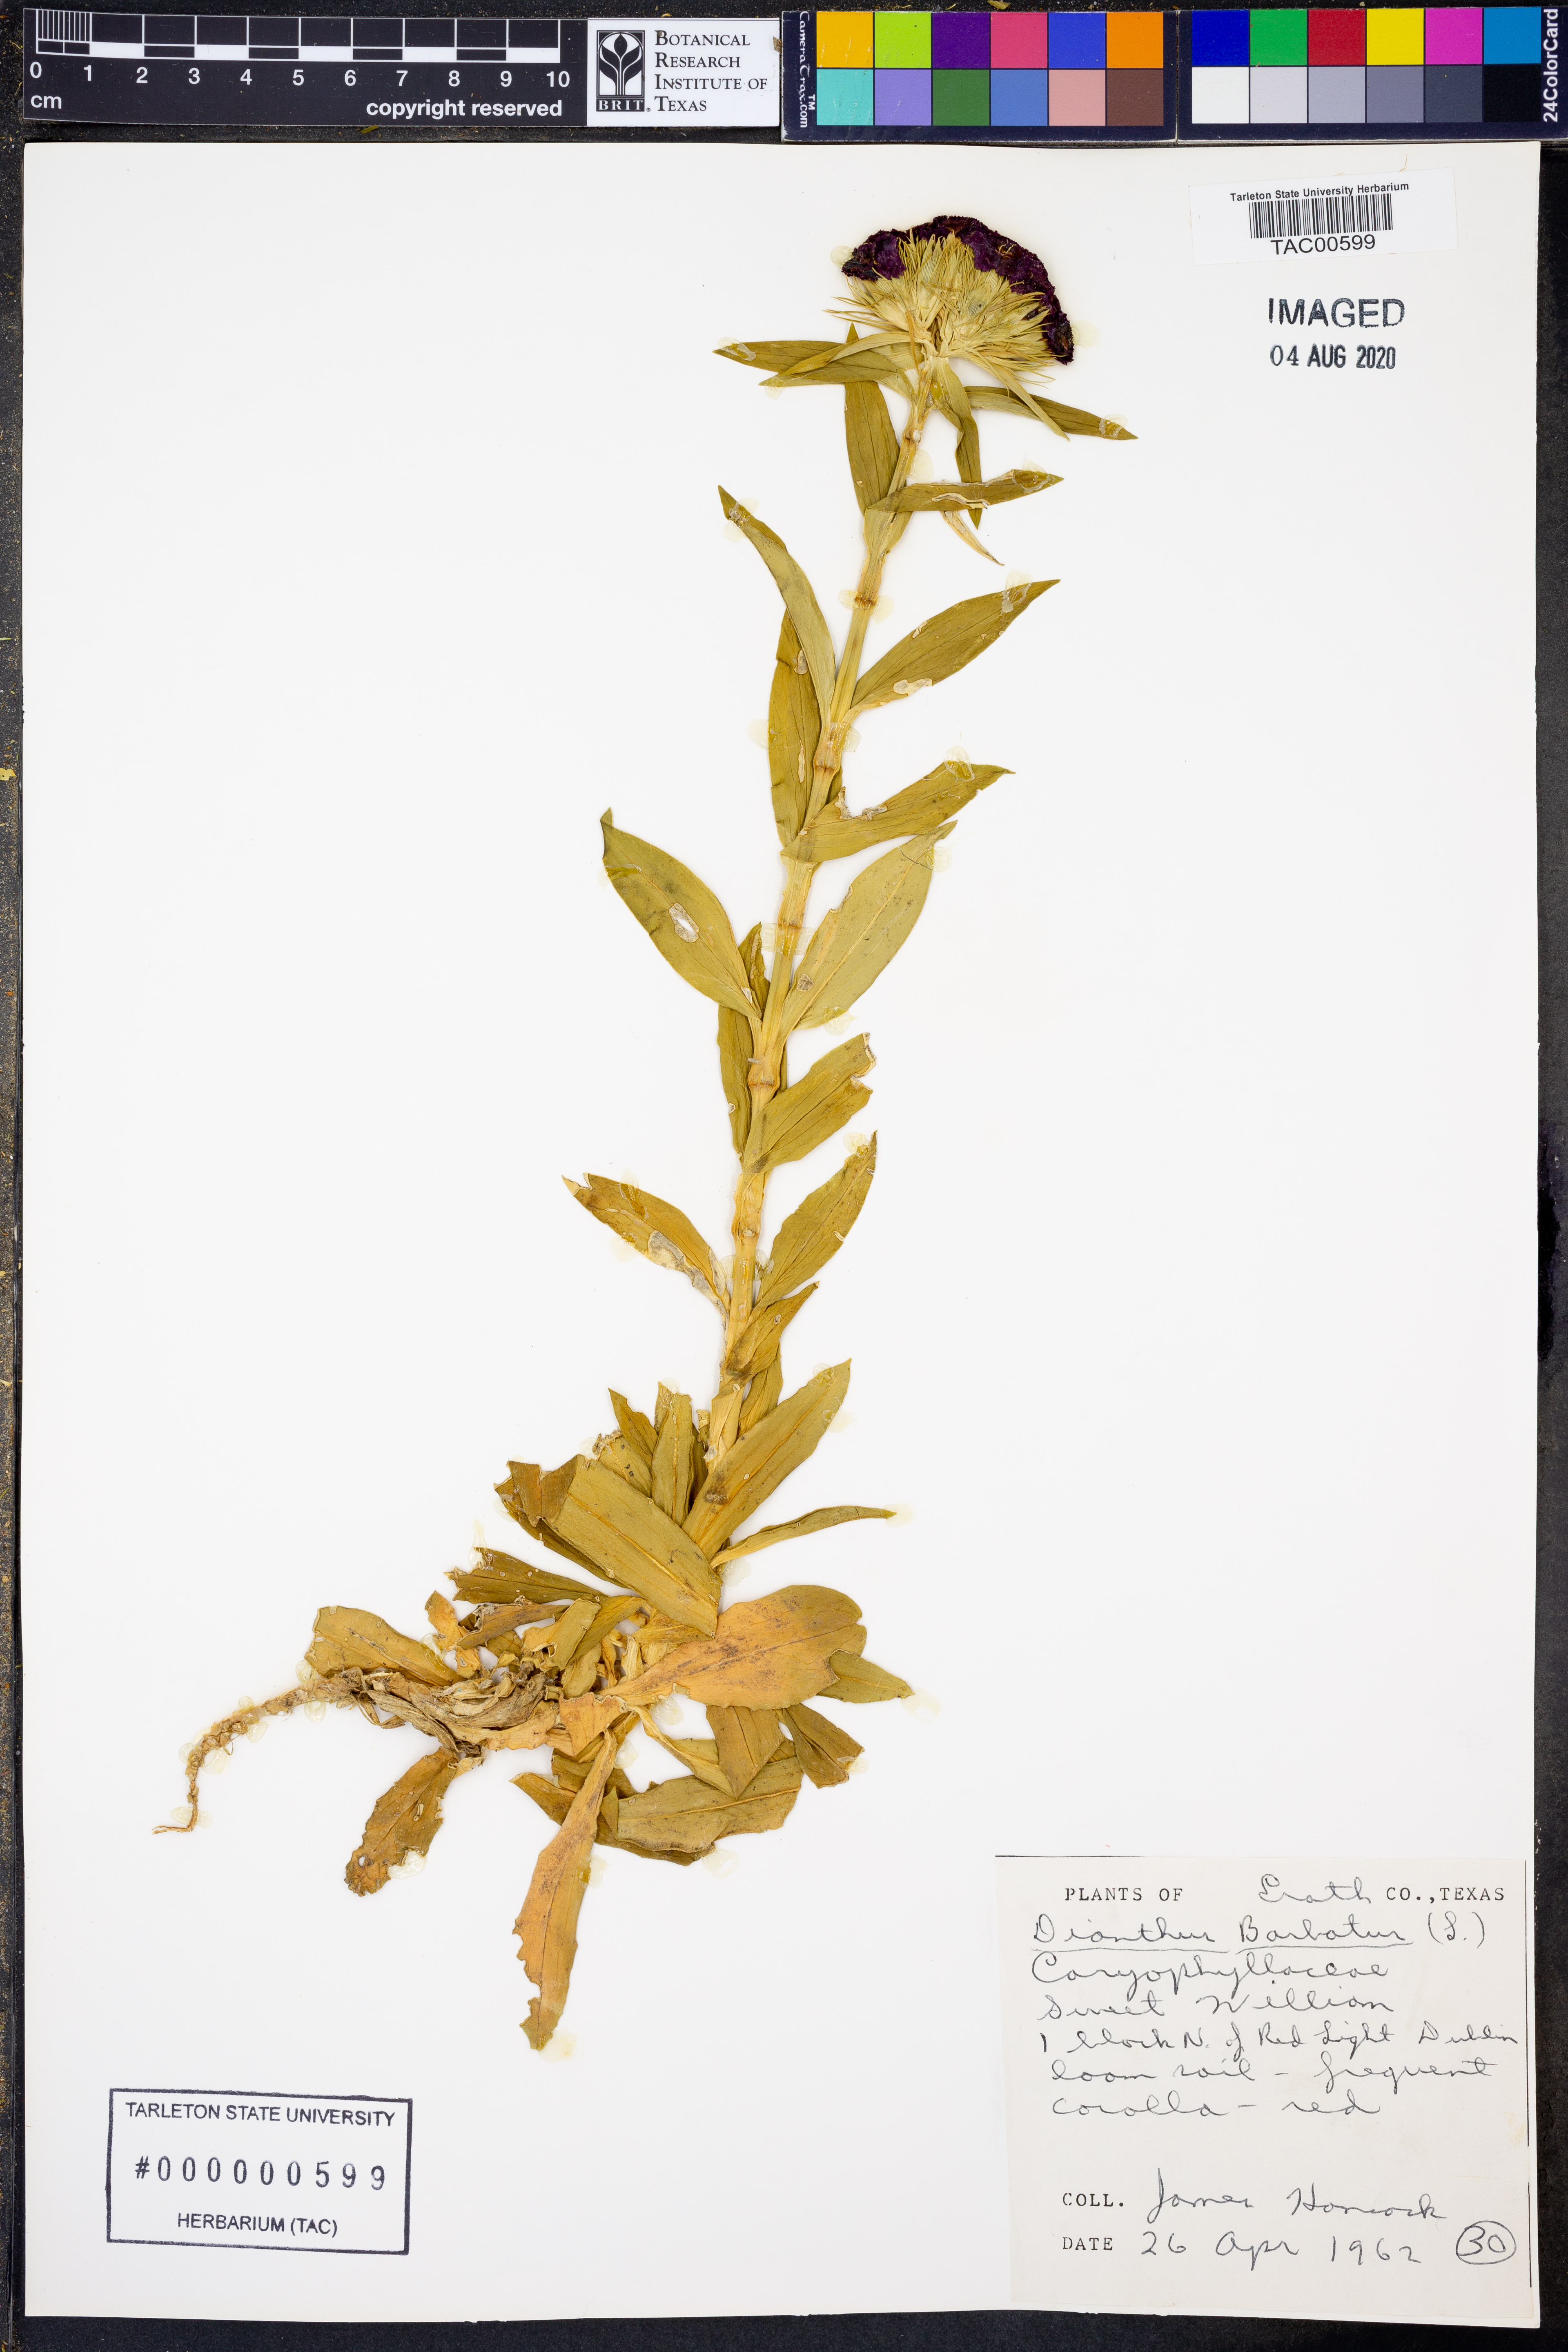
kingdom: Plantae
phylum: Tracheophyta
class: Magnoliopsida
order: Caryophyllales
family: Caryophyllaceae
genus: Dianthus
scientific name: Dianthus barbatus
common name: Sweet-william
